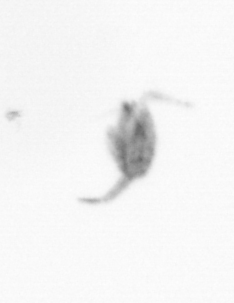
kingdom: Animalia
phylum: Arthropoda
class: Copepoda
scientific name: Copepoda
